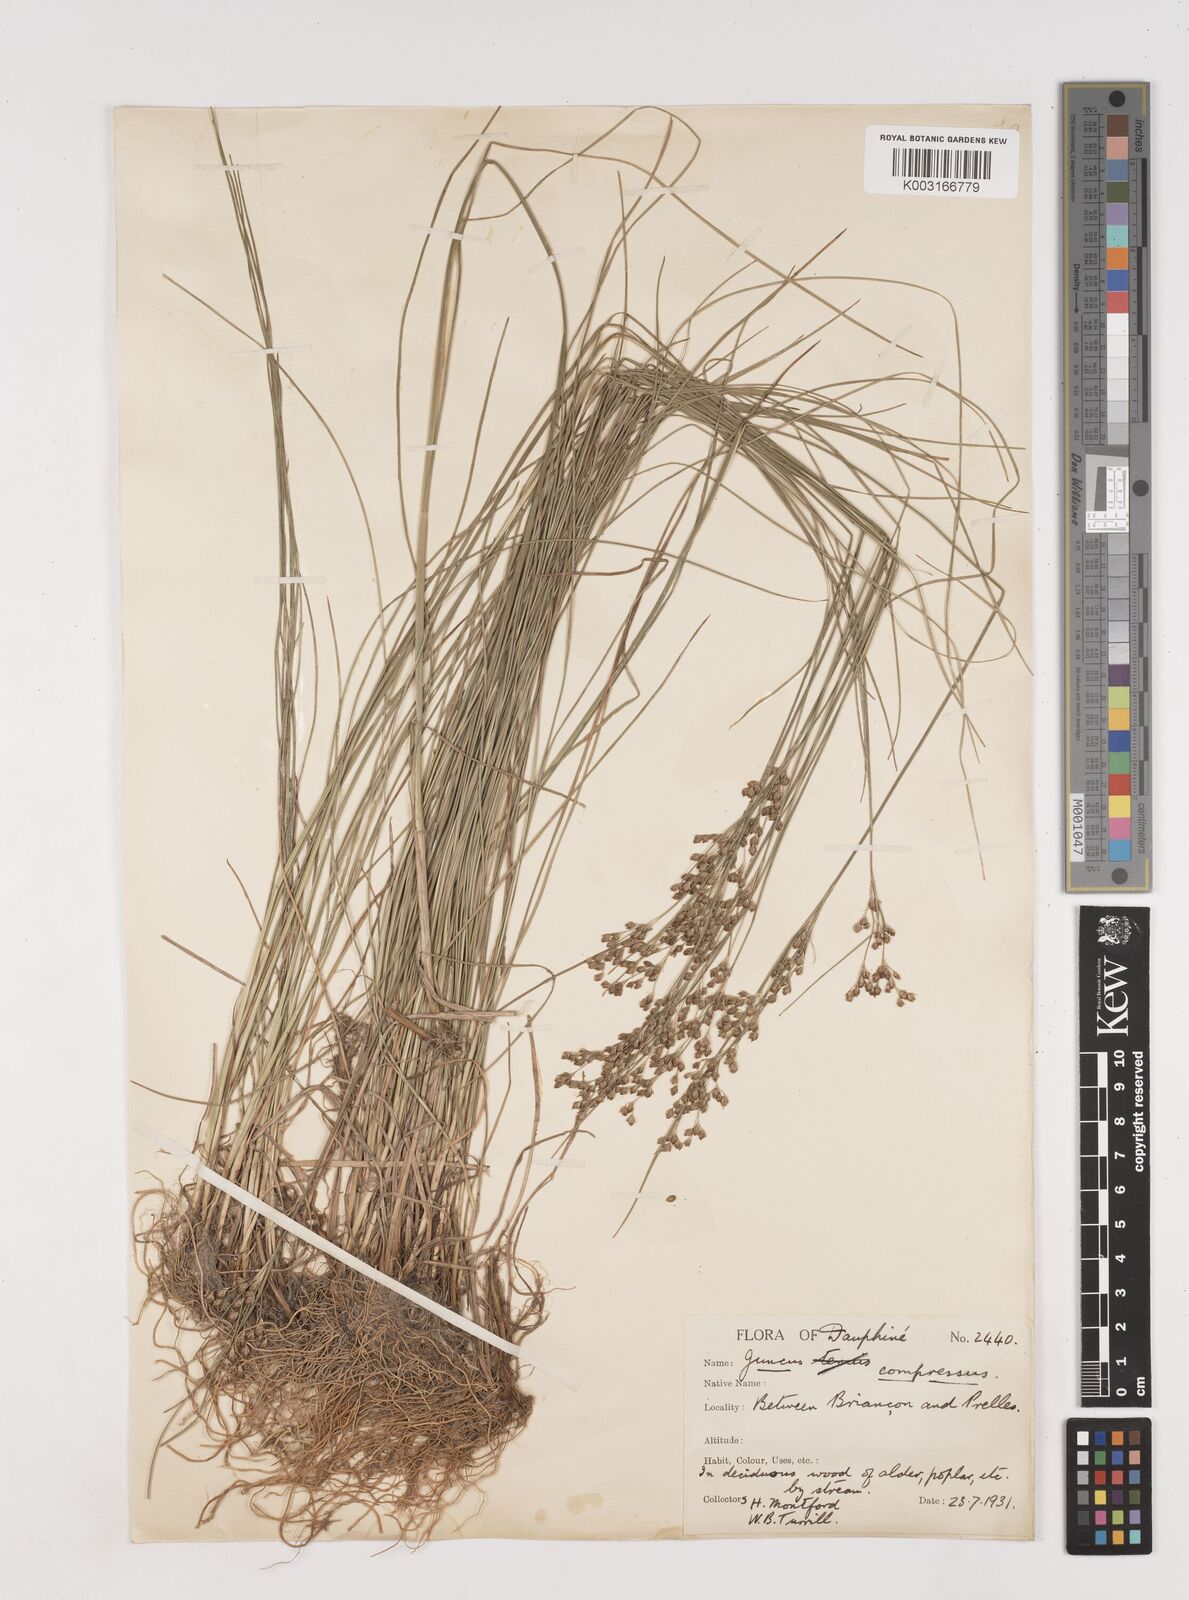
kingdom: Plantae
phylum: Tracheophyta
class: Liliopsida
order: Poales
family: Juncaceae
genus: Juncus
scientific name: Juncus compressus
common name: Round-fruited rush
